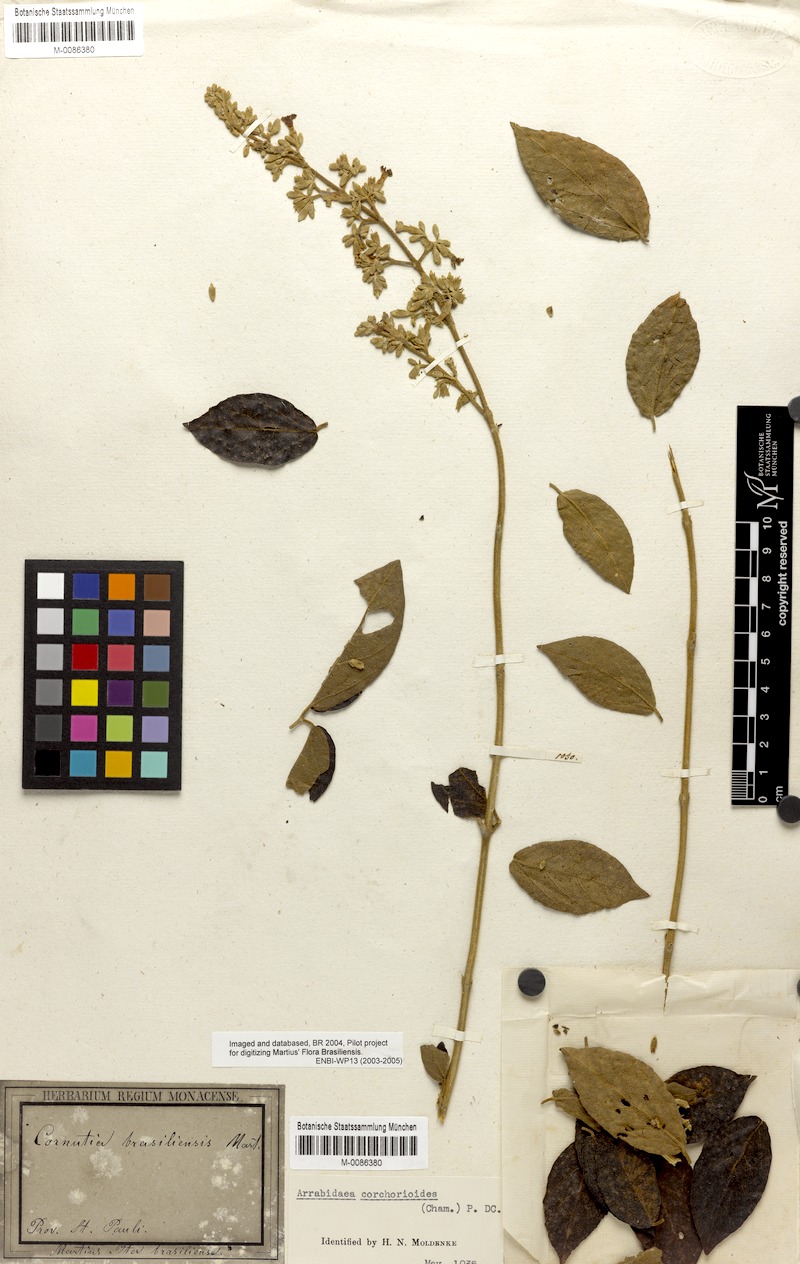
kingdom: Plantae
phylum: Tracheophyta
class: Magnoliopsida
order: Lamiales
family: Bignoniaceae
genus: Xylophragma
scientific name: Xylophragma corchoroides
